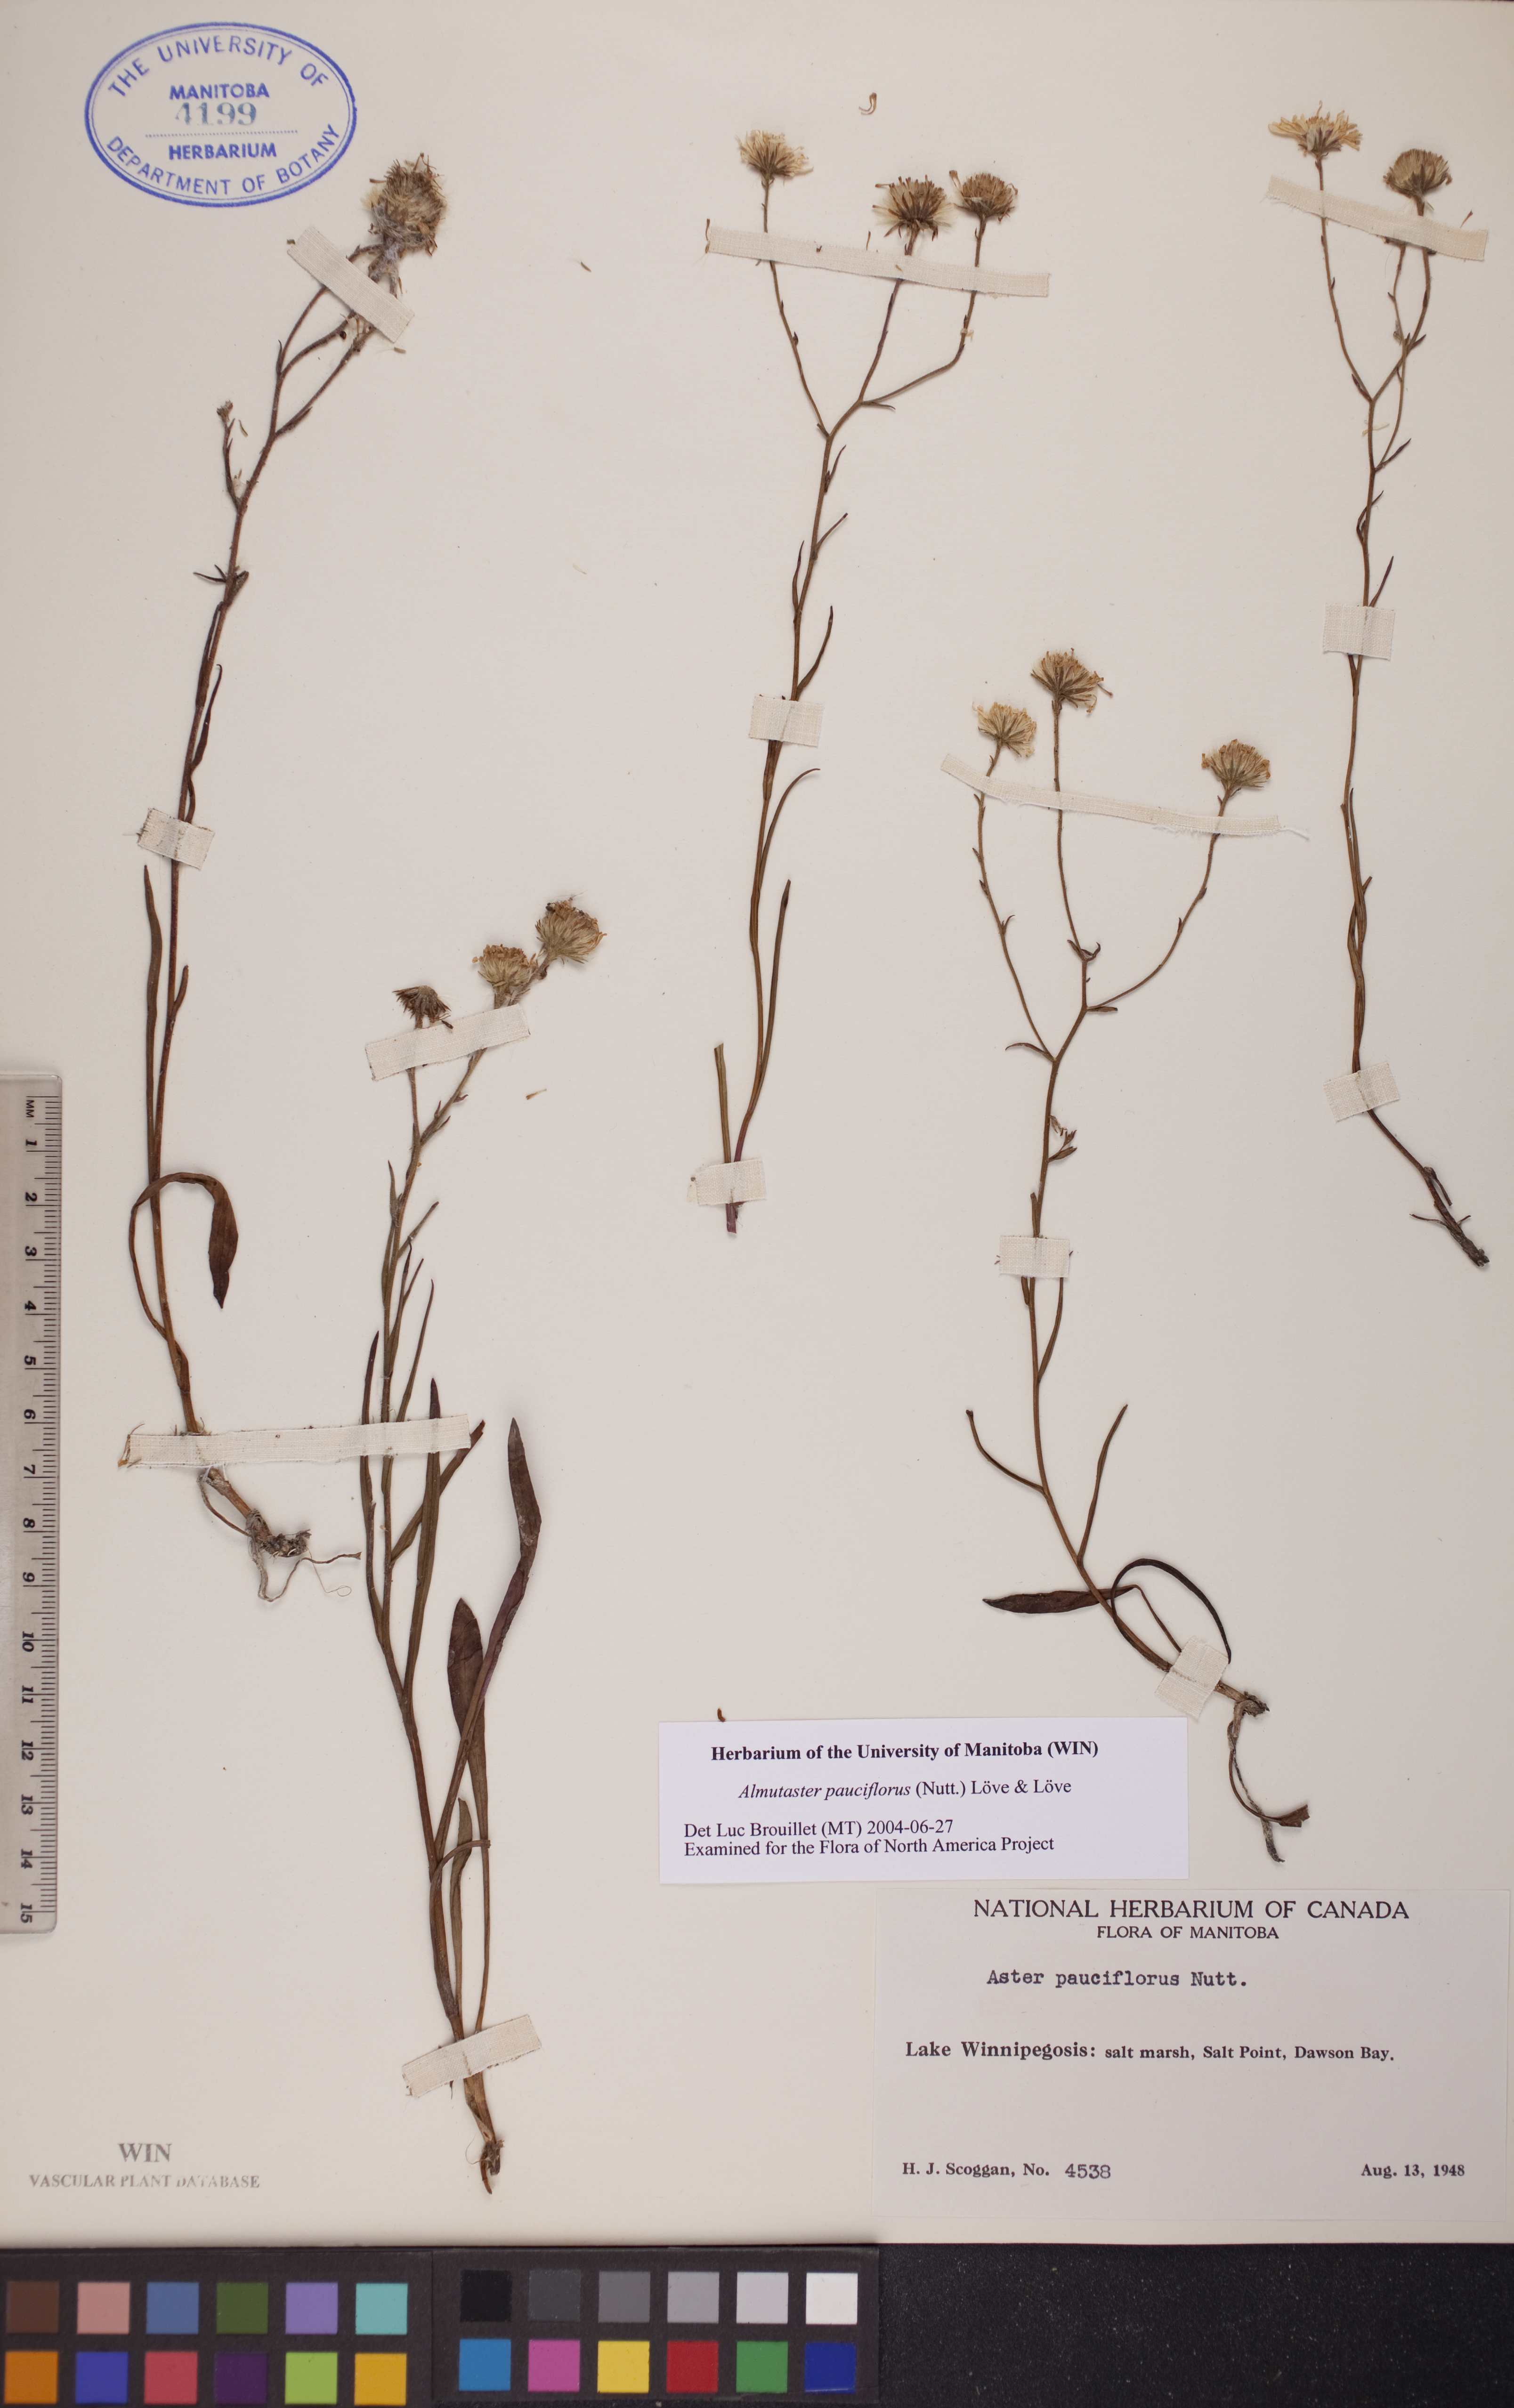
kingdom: Plantae
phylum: Tracheophyta
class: Magnoliopsida
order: Asterales
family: Asteraceae
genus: Almutaster
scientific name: Almutaster pauciflorus
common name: Alkaline aster
